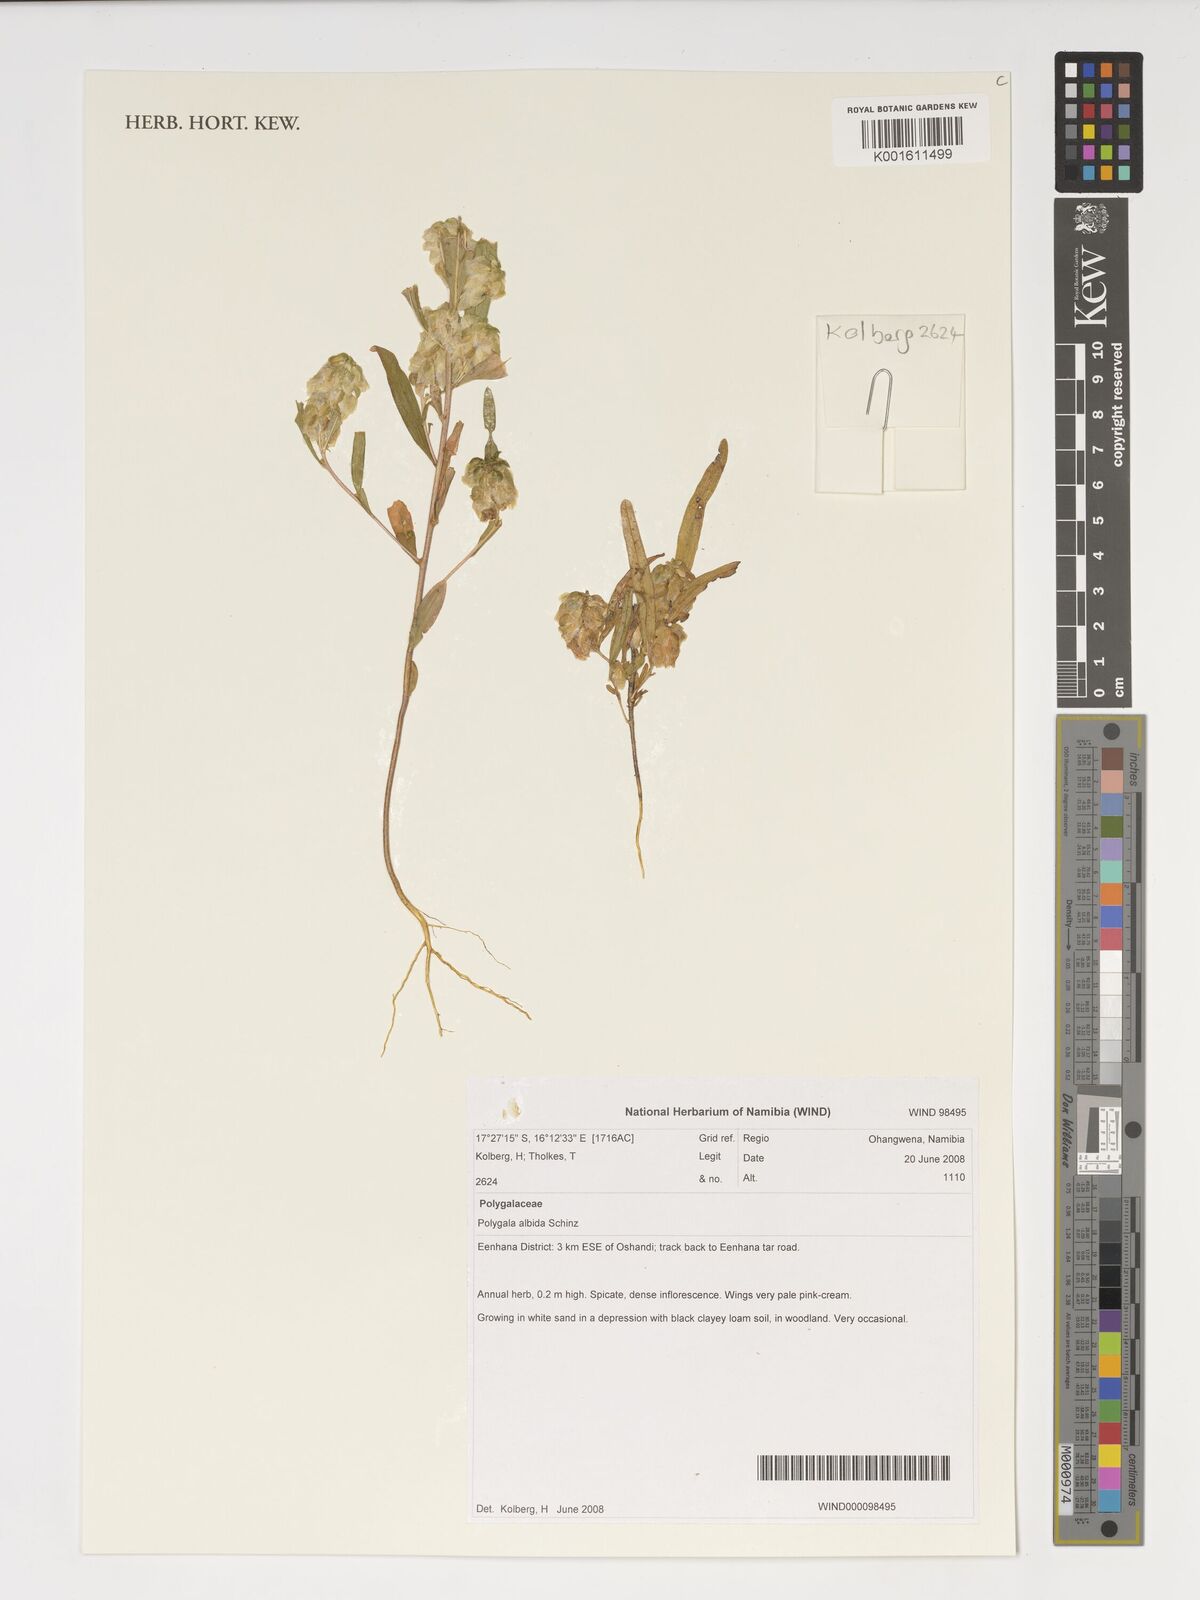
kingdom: Plantae
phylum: Tracheophyta
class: Magnoliopsida
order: Fabales
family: Polygalaceae
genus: Polygala
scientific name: Polygala albida
